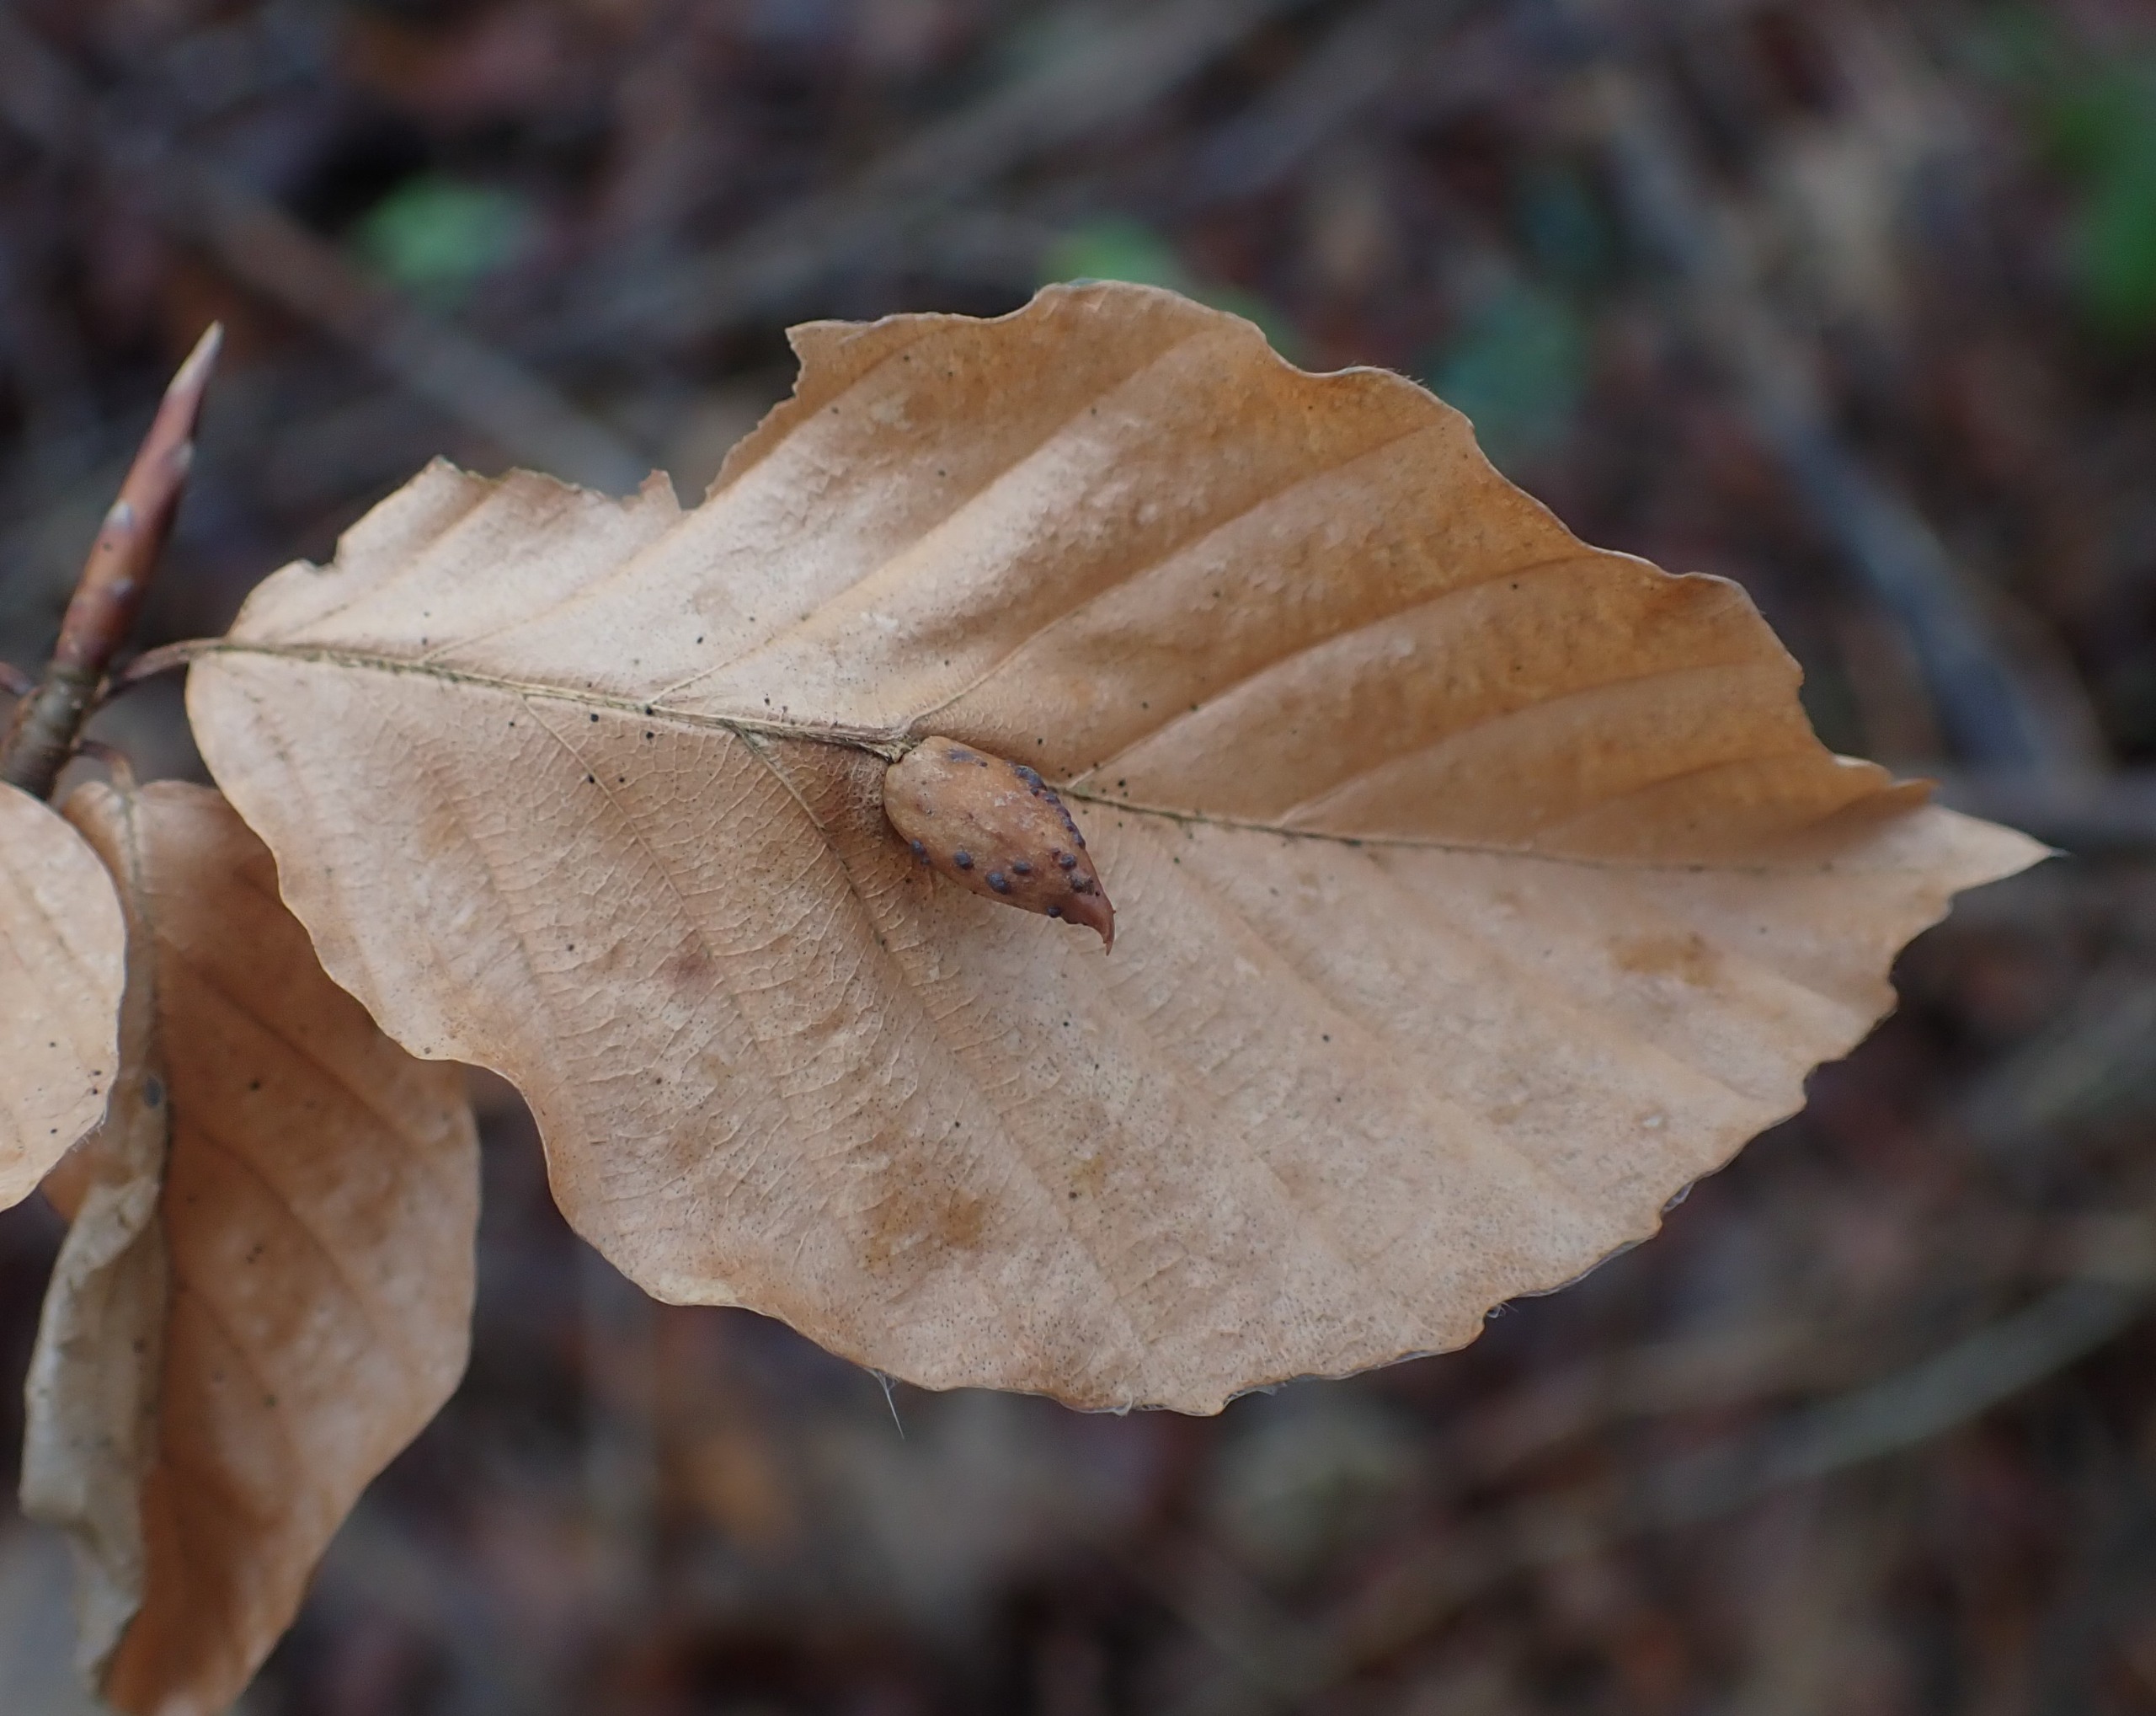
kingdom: Animalia
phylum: Arthropoda
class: Insecta
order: Diptera
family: Cecidomyiidae
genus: Mikiola
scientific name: Mikiola fagi
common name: Bøgegalmyg
